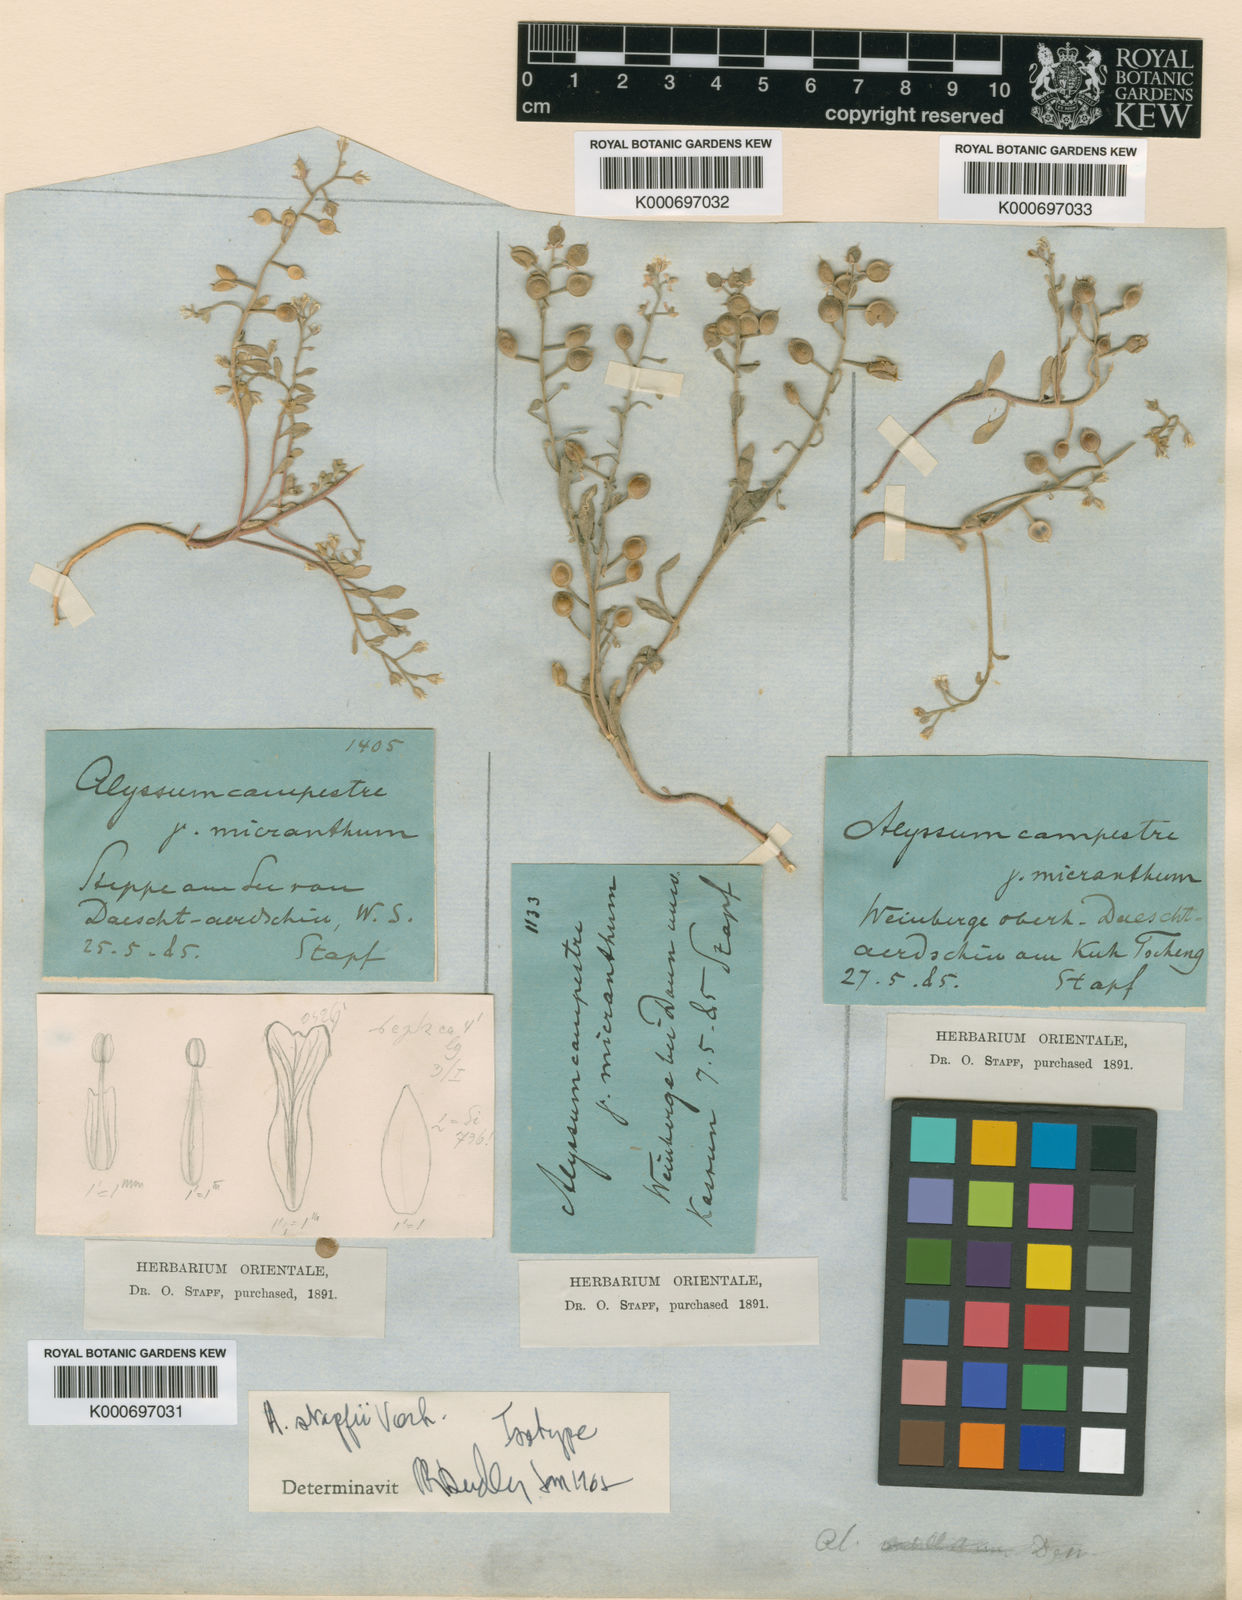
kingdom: Plantae
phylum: Tracheophyta
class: Magnoliopsida
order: Brassicales
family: Brassicaceae
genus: Alyssum
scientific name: Alyssum stapfii
